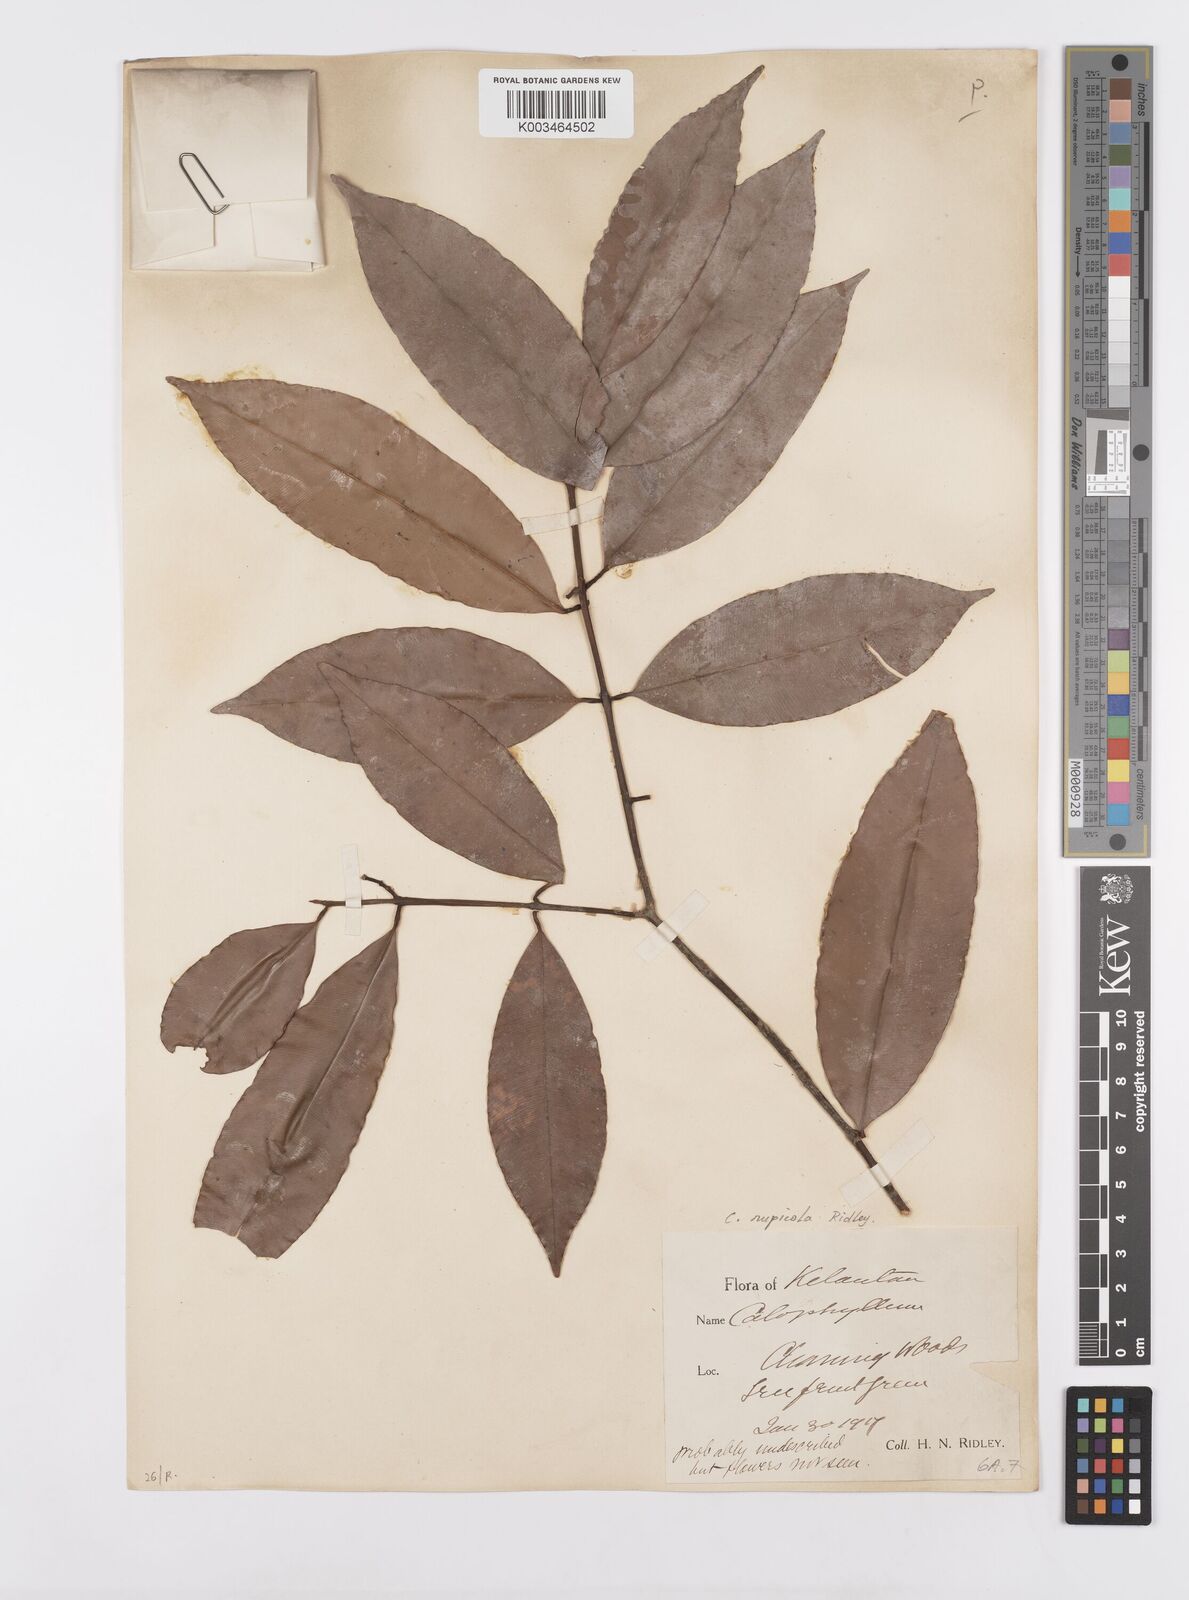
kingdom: Plantae
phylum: Tracheophyta
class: Magnoliopsida
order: Malpighiales
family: Calophyllaceae
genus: Calophyllum
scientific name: Calophyllum rupicola
